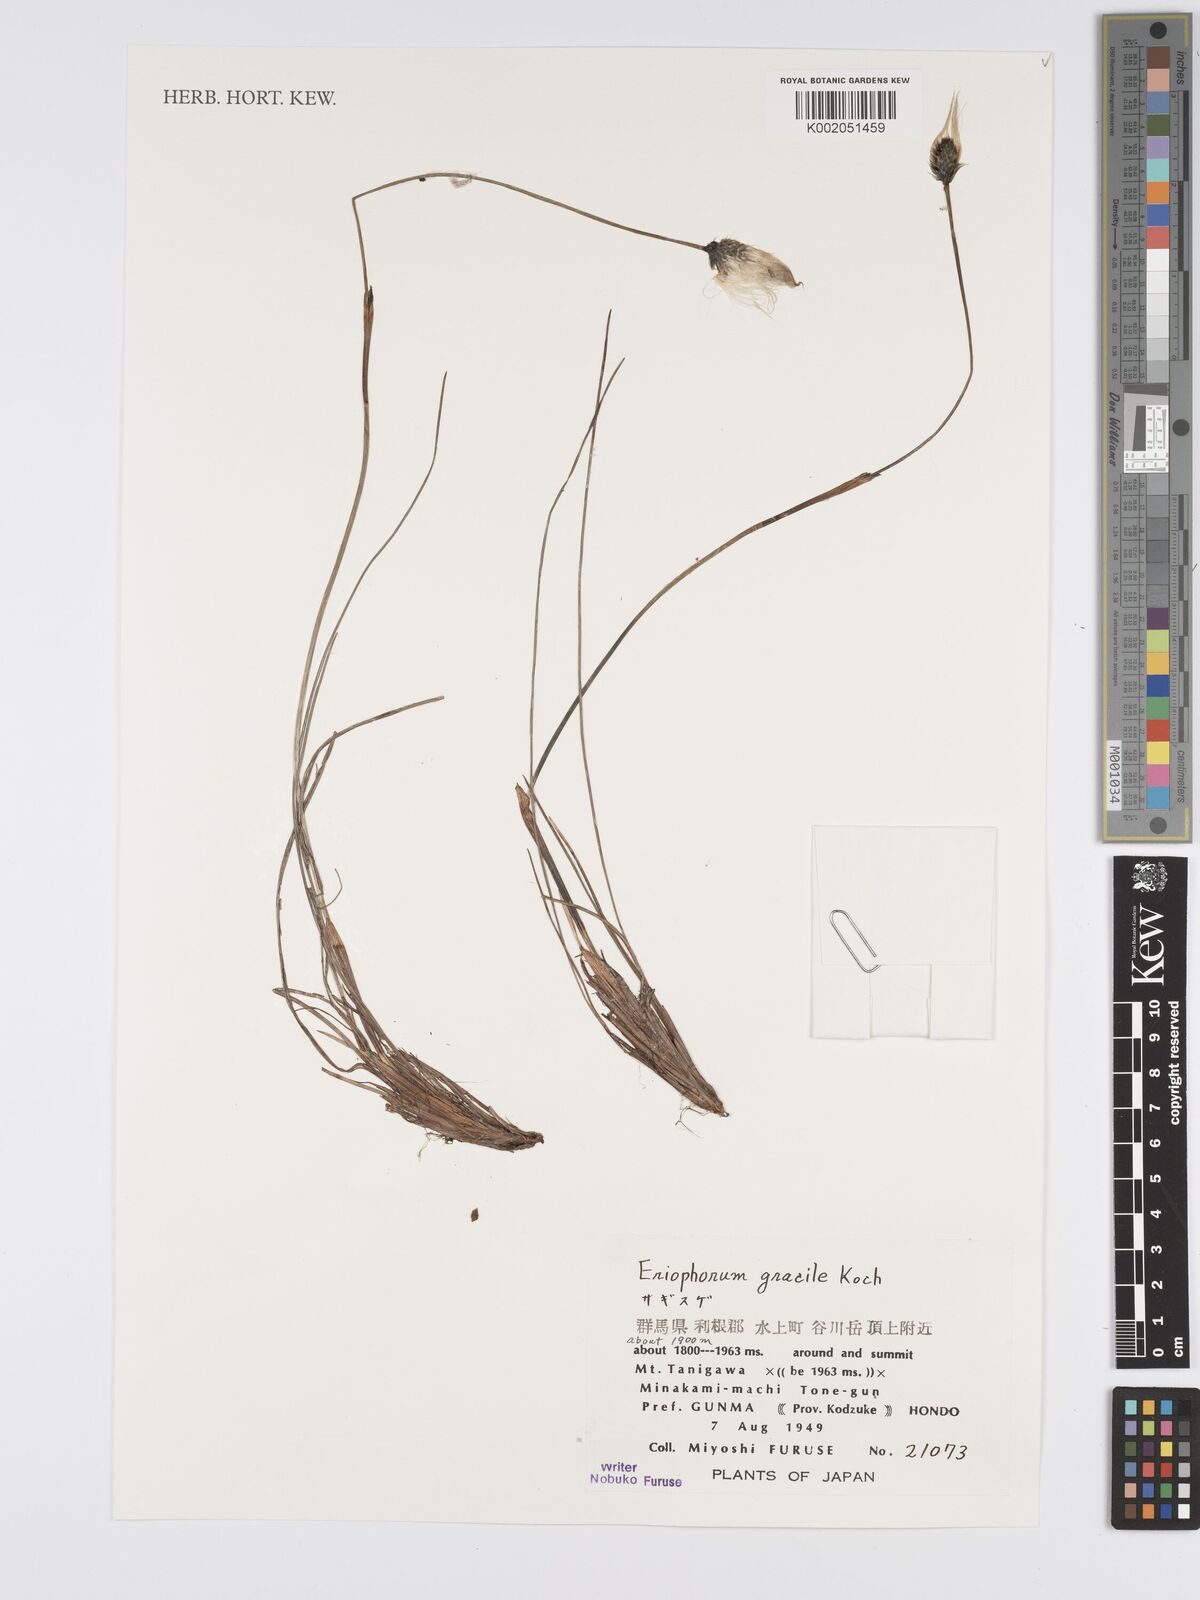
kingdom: Plantae
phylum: Tracheophyta
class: Liliopsida
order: Poales
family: Cyperaceae
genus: Eriophorum
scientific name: Eriophorum gracile
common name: Slender cottongrass
